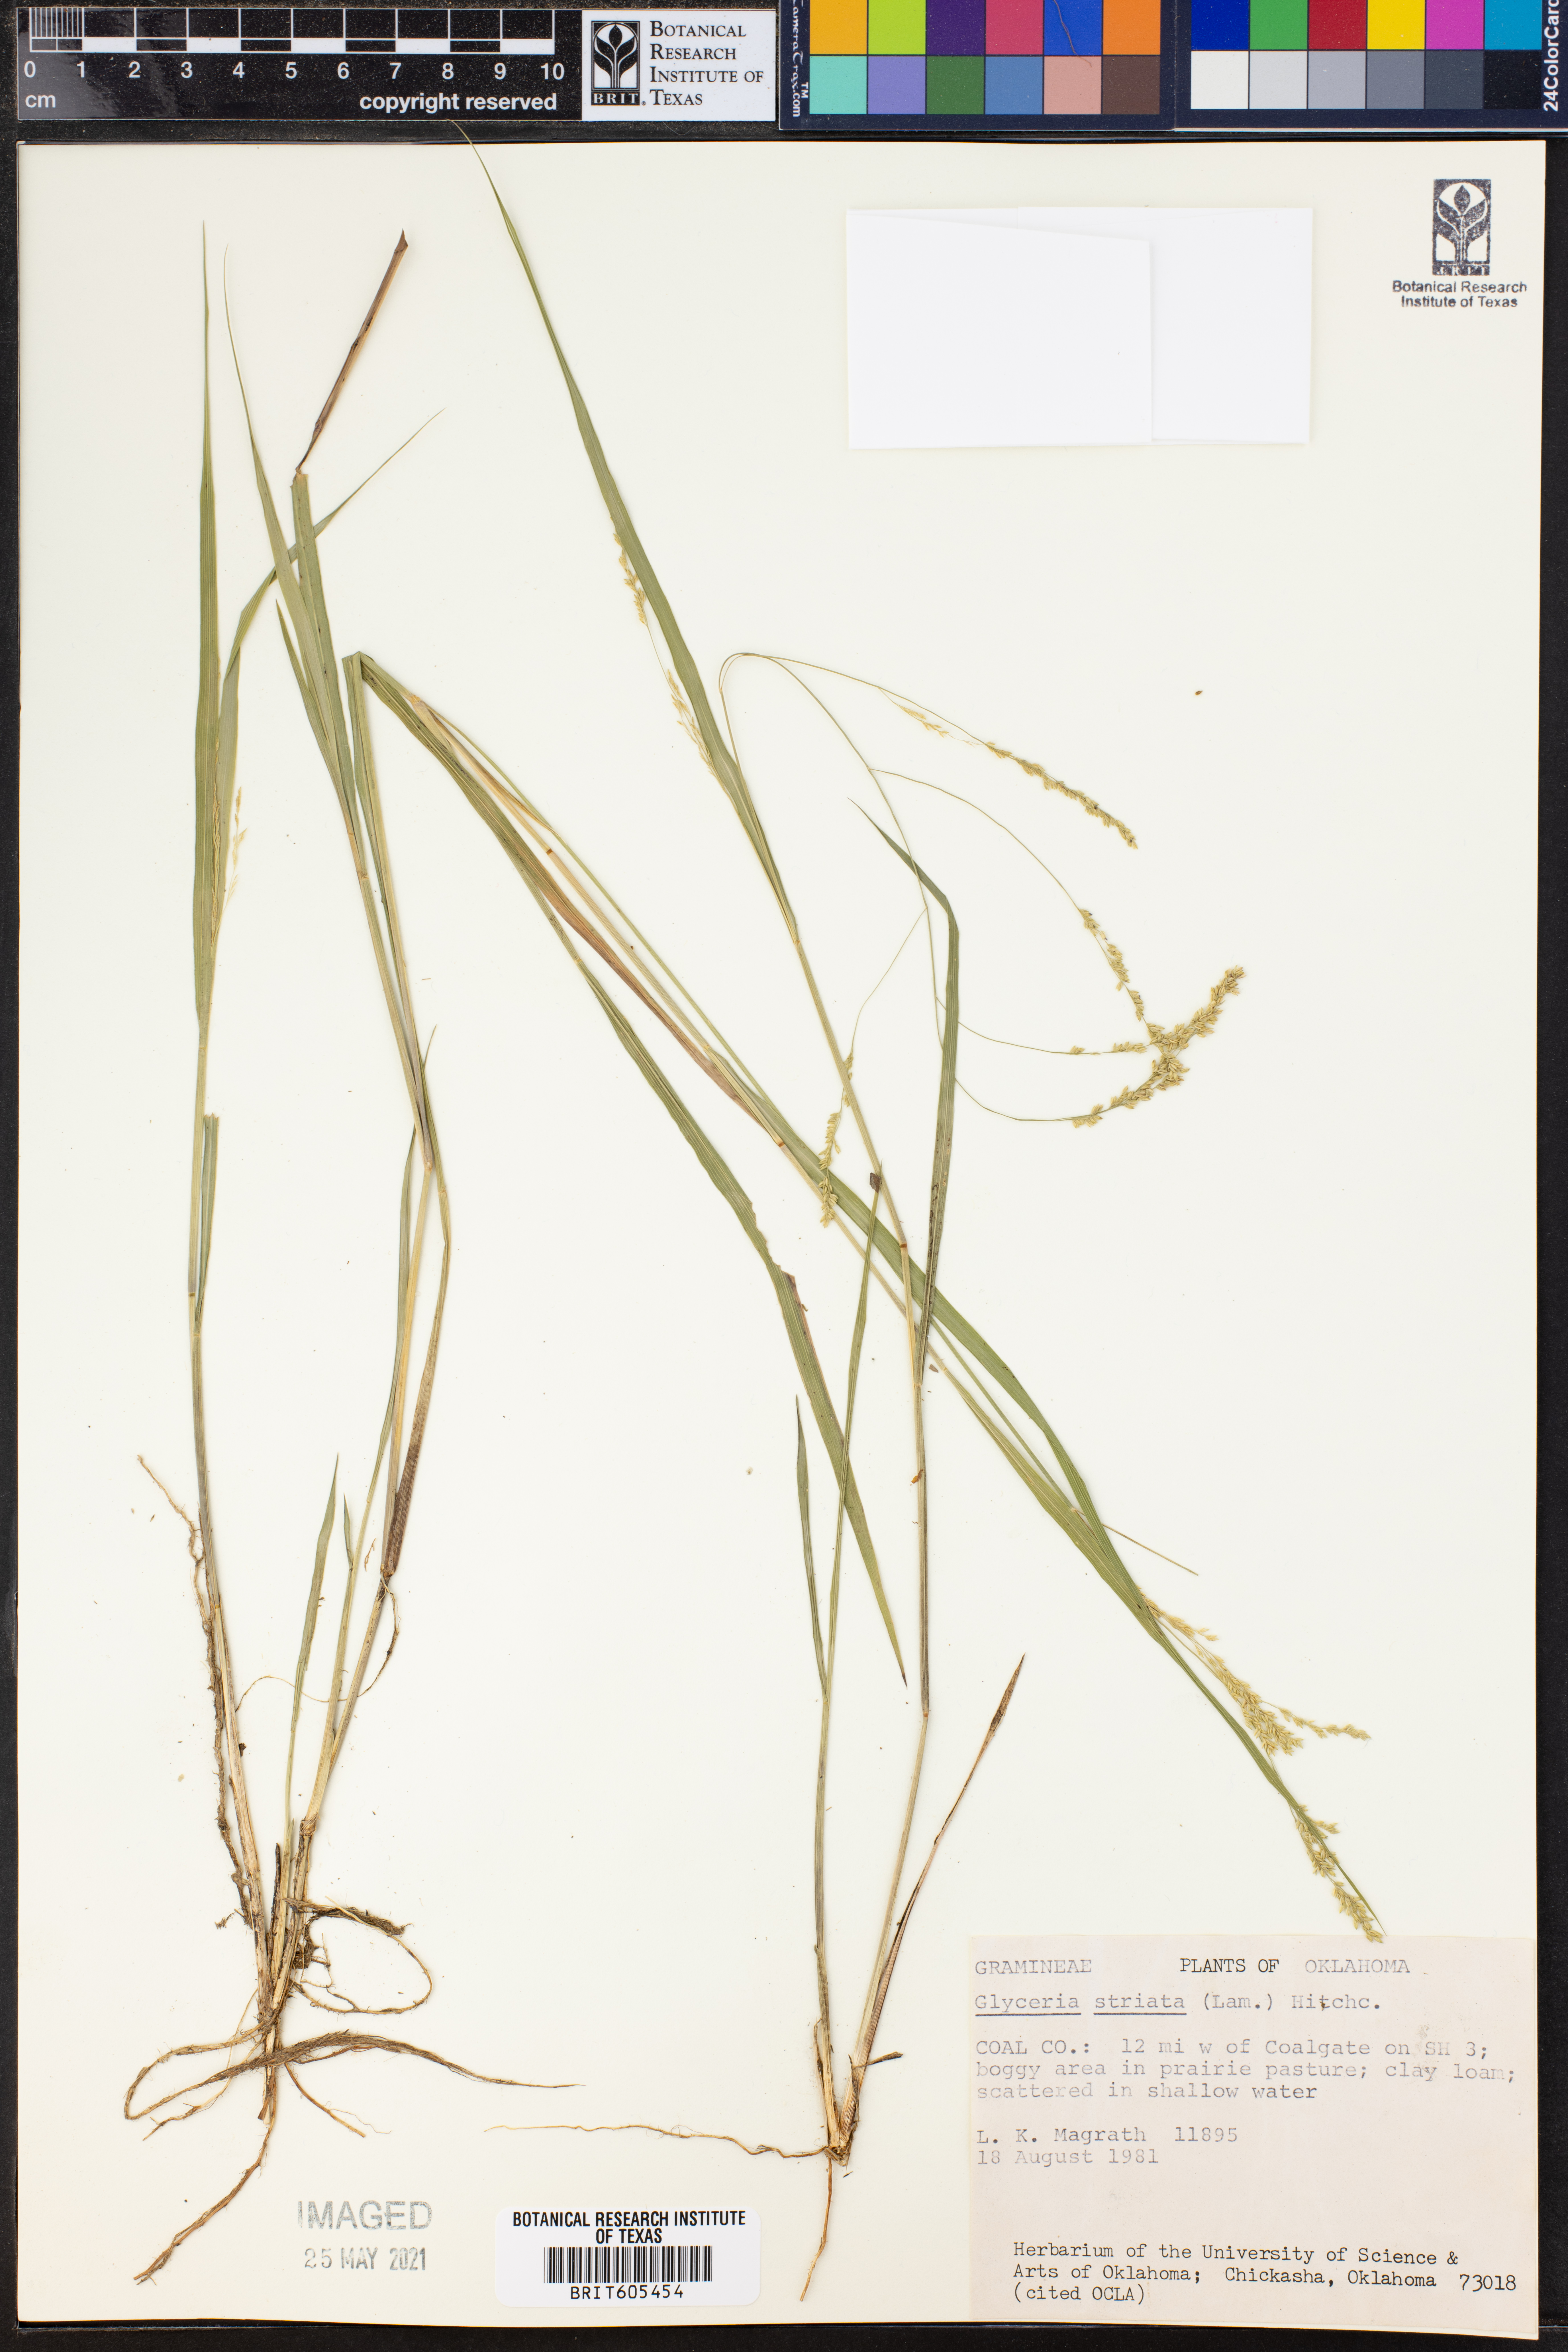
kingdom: Plantae
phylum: Tracheophyta
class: Liliopsida
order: Poales
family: Poaceae
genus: Glyceria
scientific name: Glyceria striata
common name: Fowl manna grass
